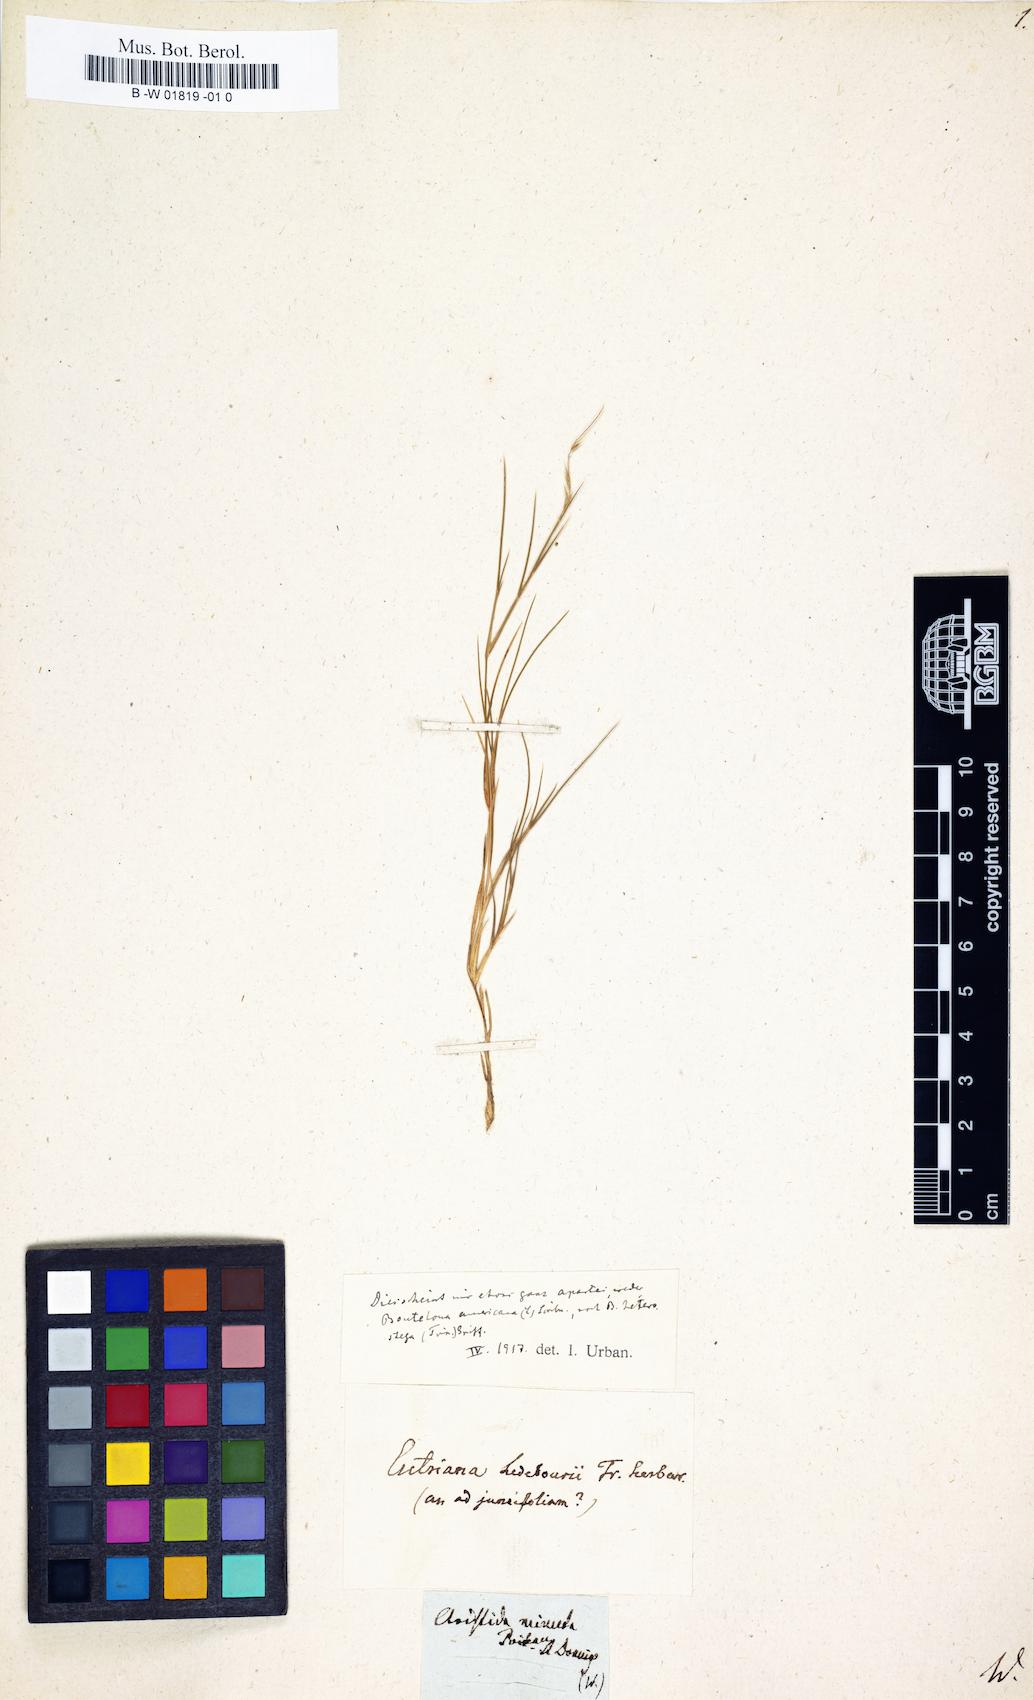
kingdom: Plantae
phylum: Tracheophyta
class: Liliopsida
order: Poales
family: Poaceae
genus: Bouteloua
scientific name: Bouteloua curtipendula
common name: Side-oats grama
